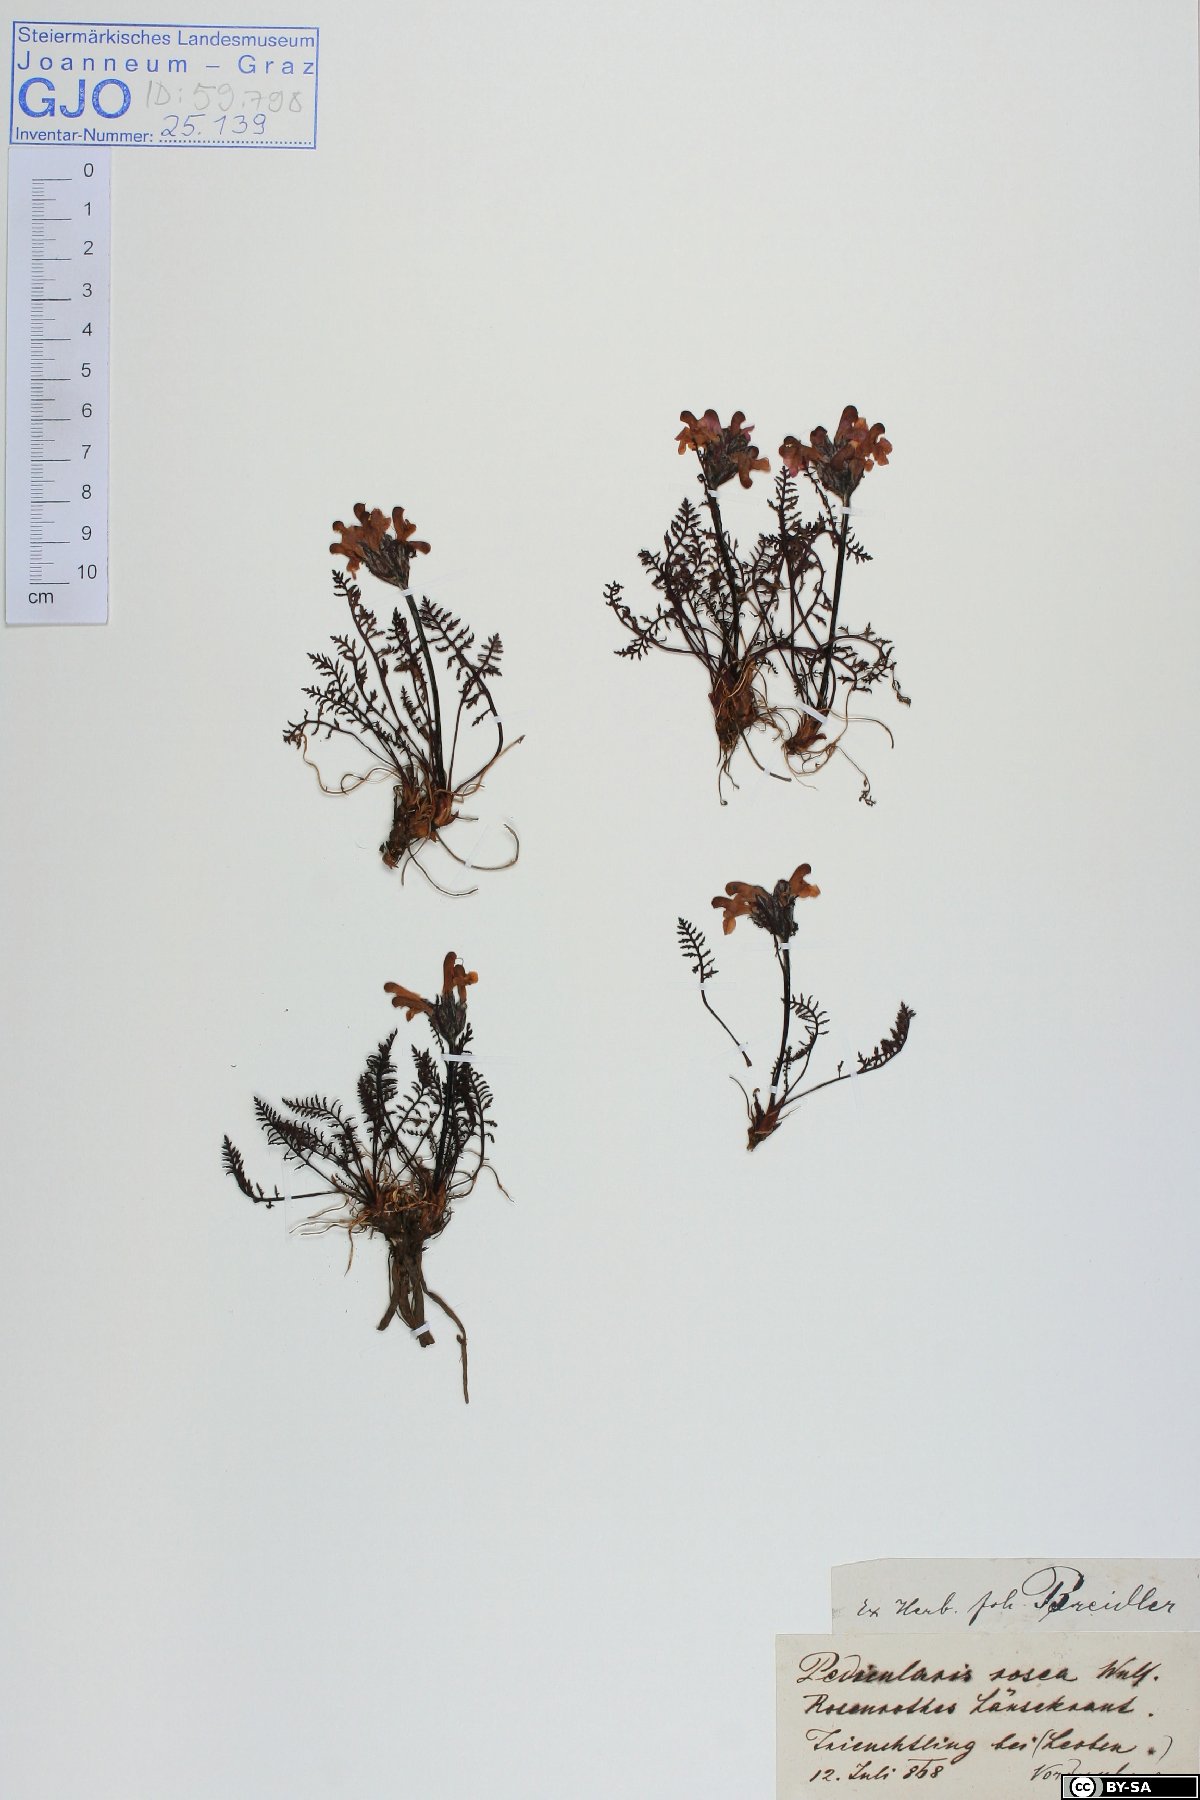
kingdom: Plantae
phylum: Tracheophyta
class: Magnoliopsida
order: Lamiales
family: Orobanchaceae
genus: Pedicularis
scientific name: Pedicularis rosea
